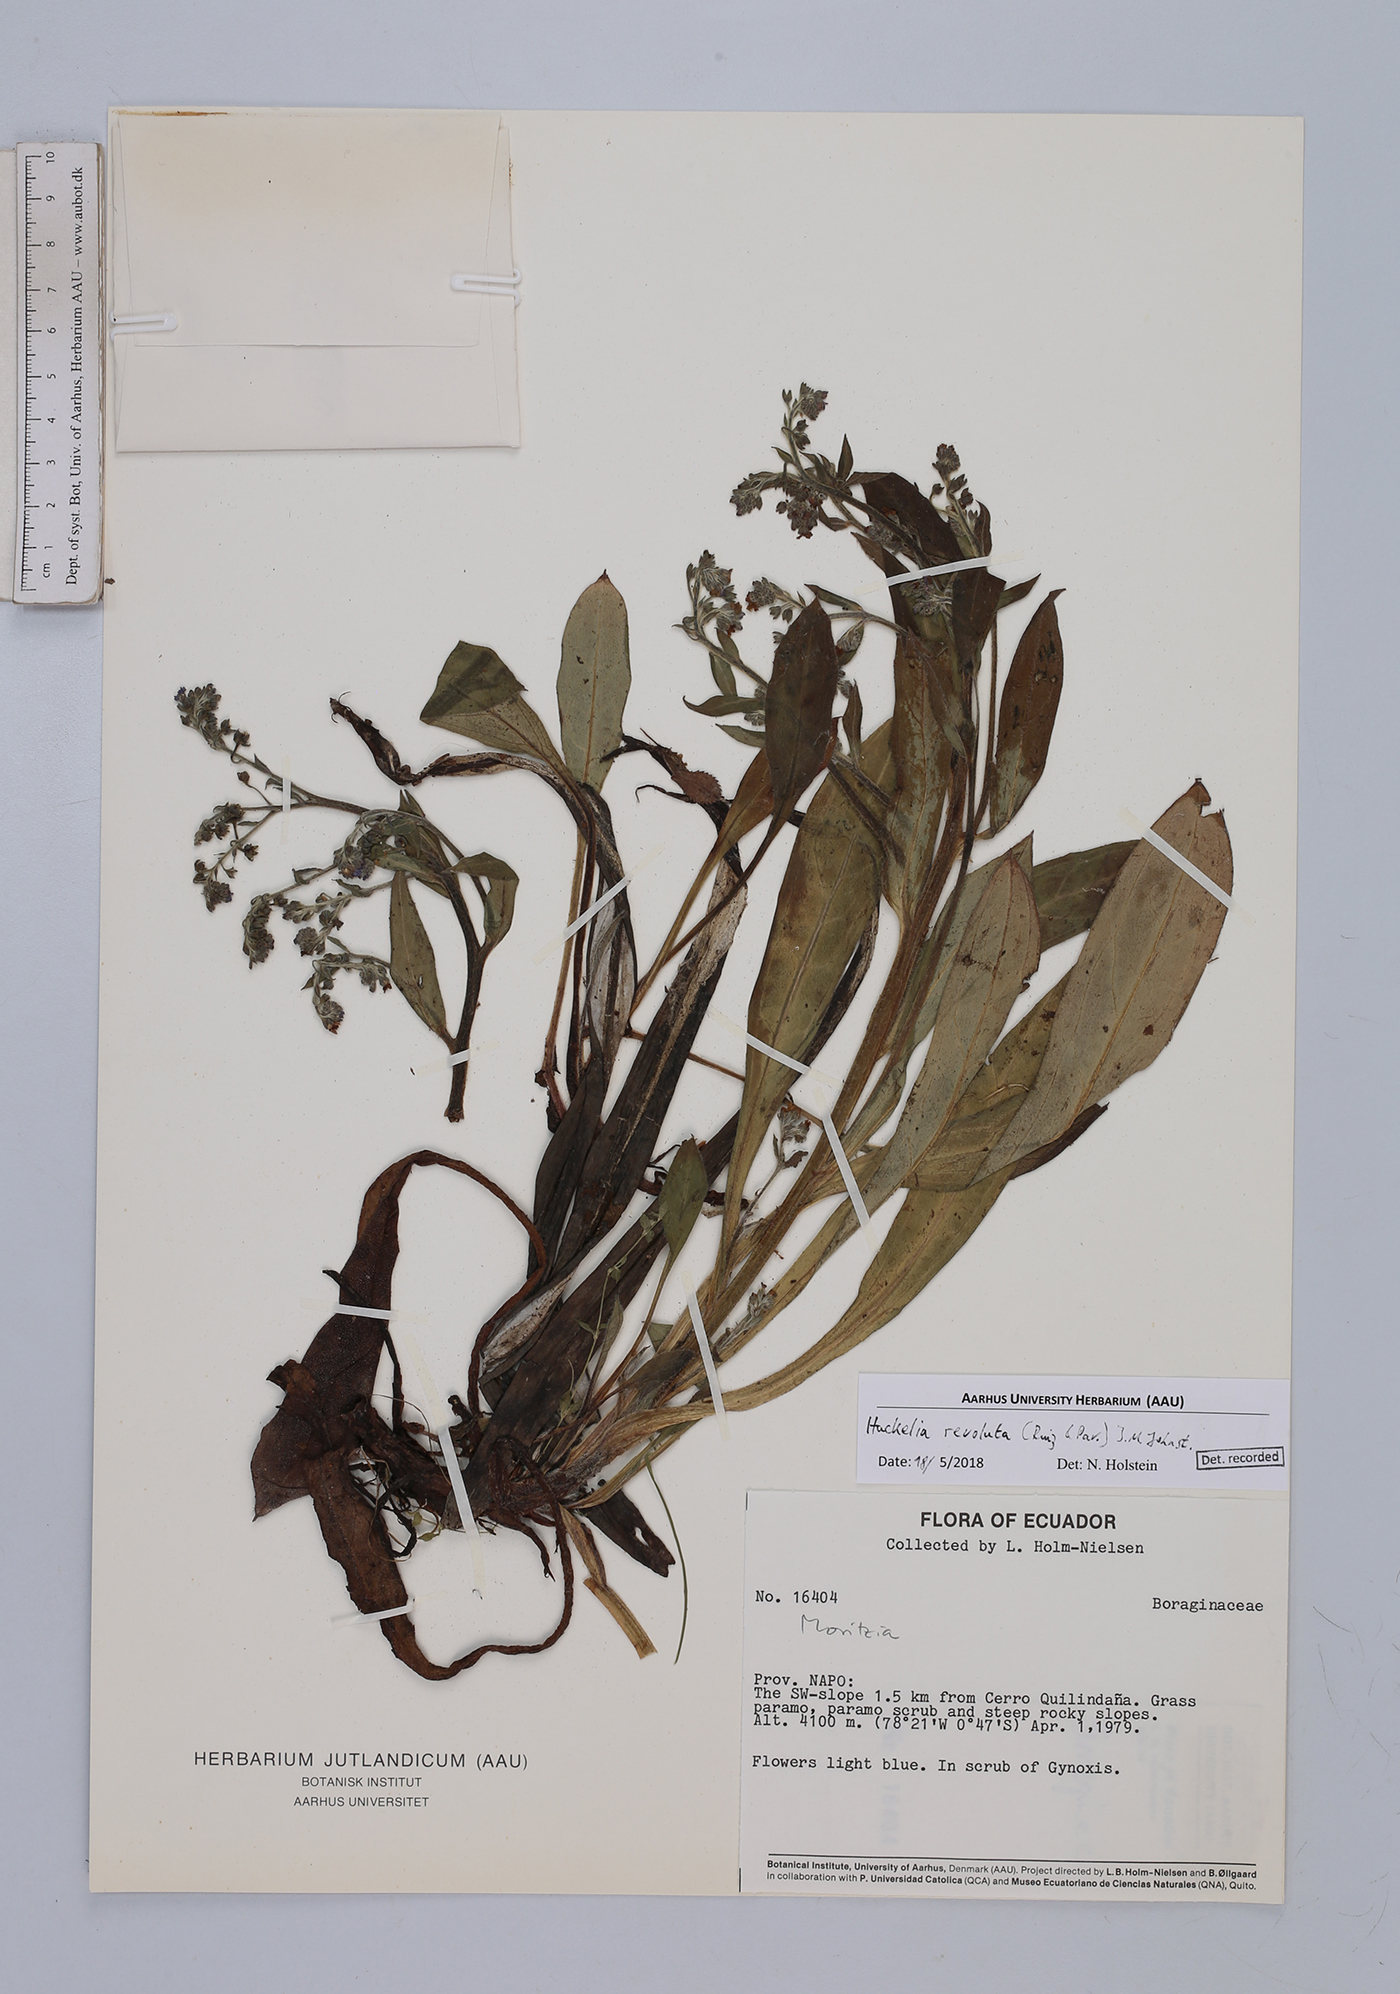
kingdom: Plantae
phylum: Tracheophyta
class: Magnoliopsida
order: Boraginales
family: Boraginaceae
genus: Moritzia
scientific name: Moritzia lindenii
